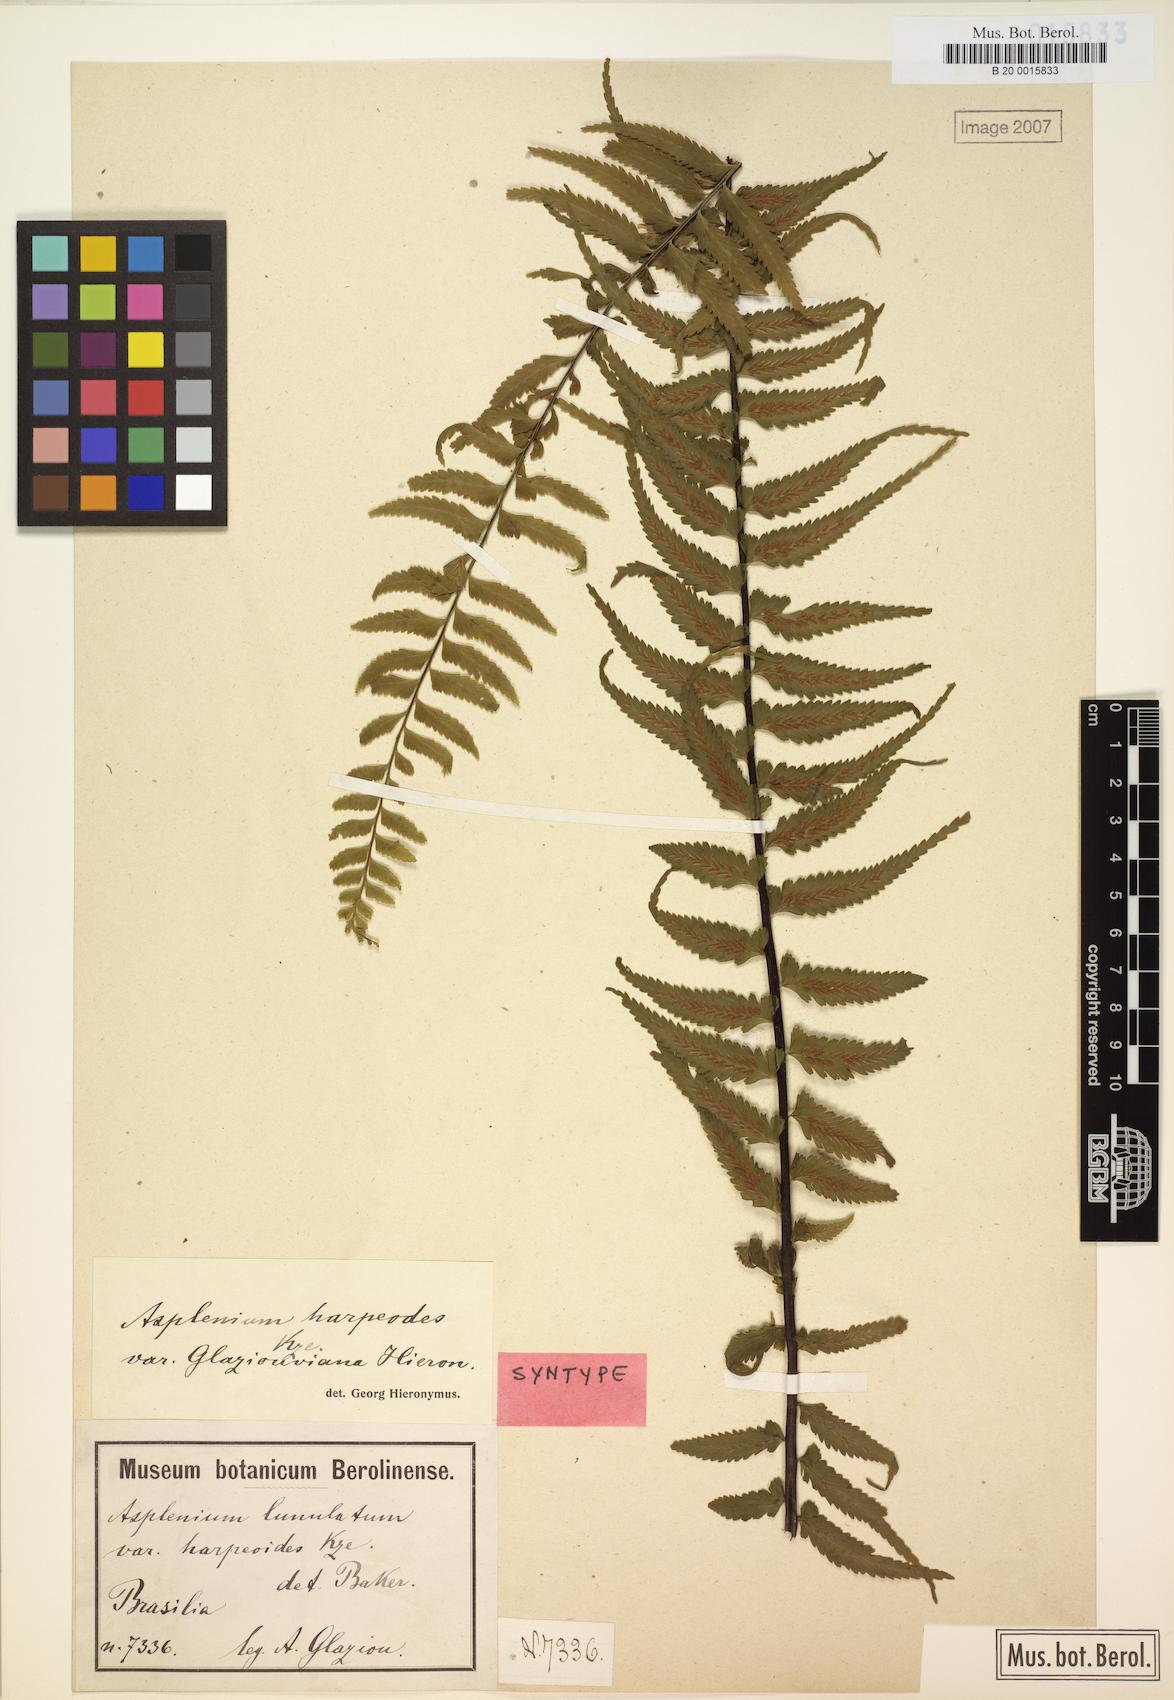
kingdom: Plantae
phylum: Tracheophyta
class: Polypodiopsida
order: Polypodiales
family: Aspleniaceae
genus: Asplenium
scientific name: Asplenium harpeodes
